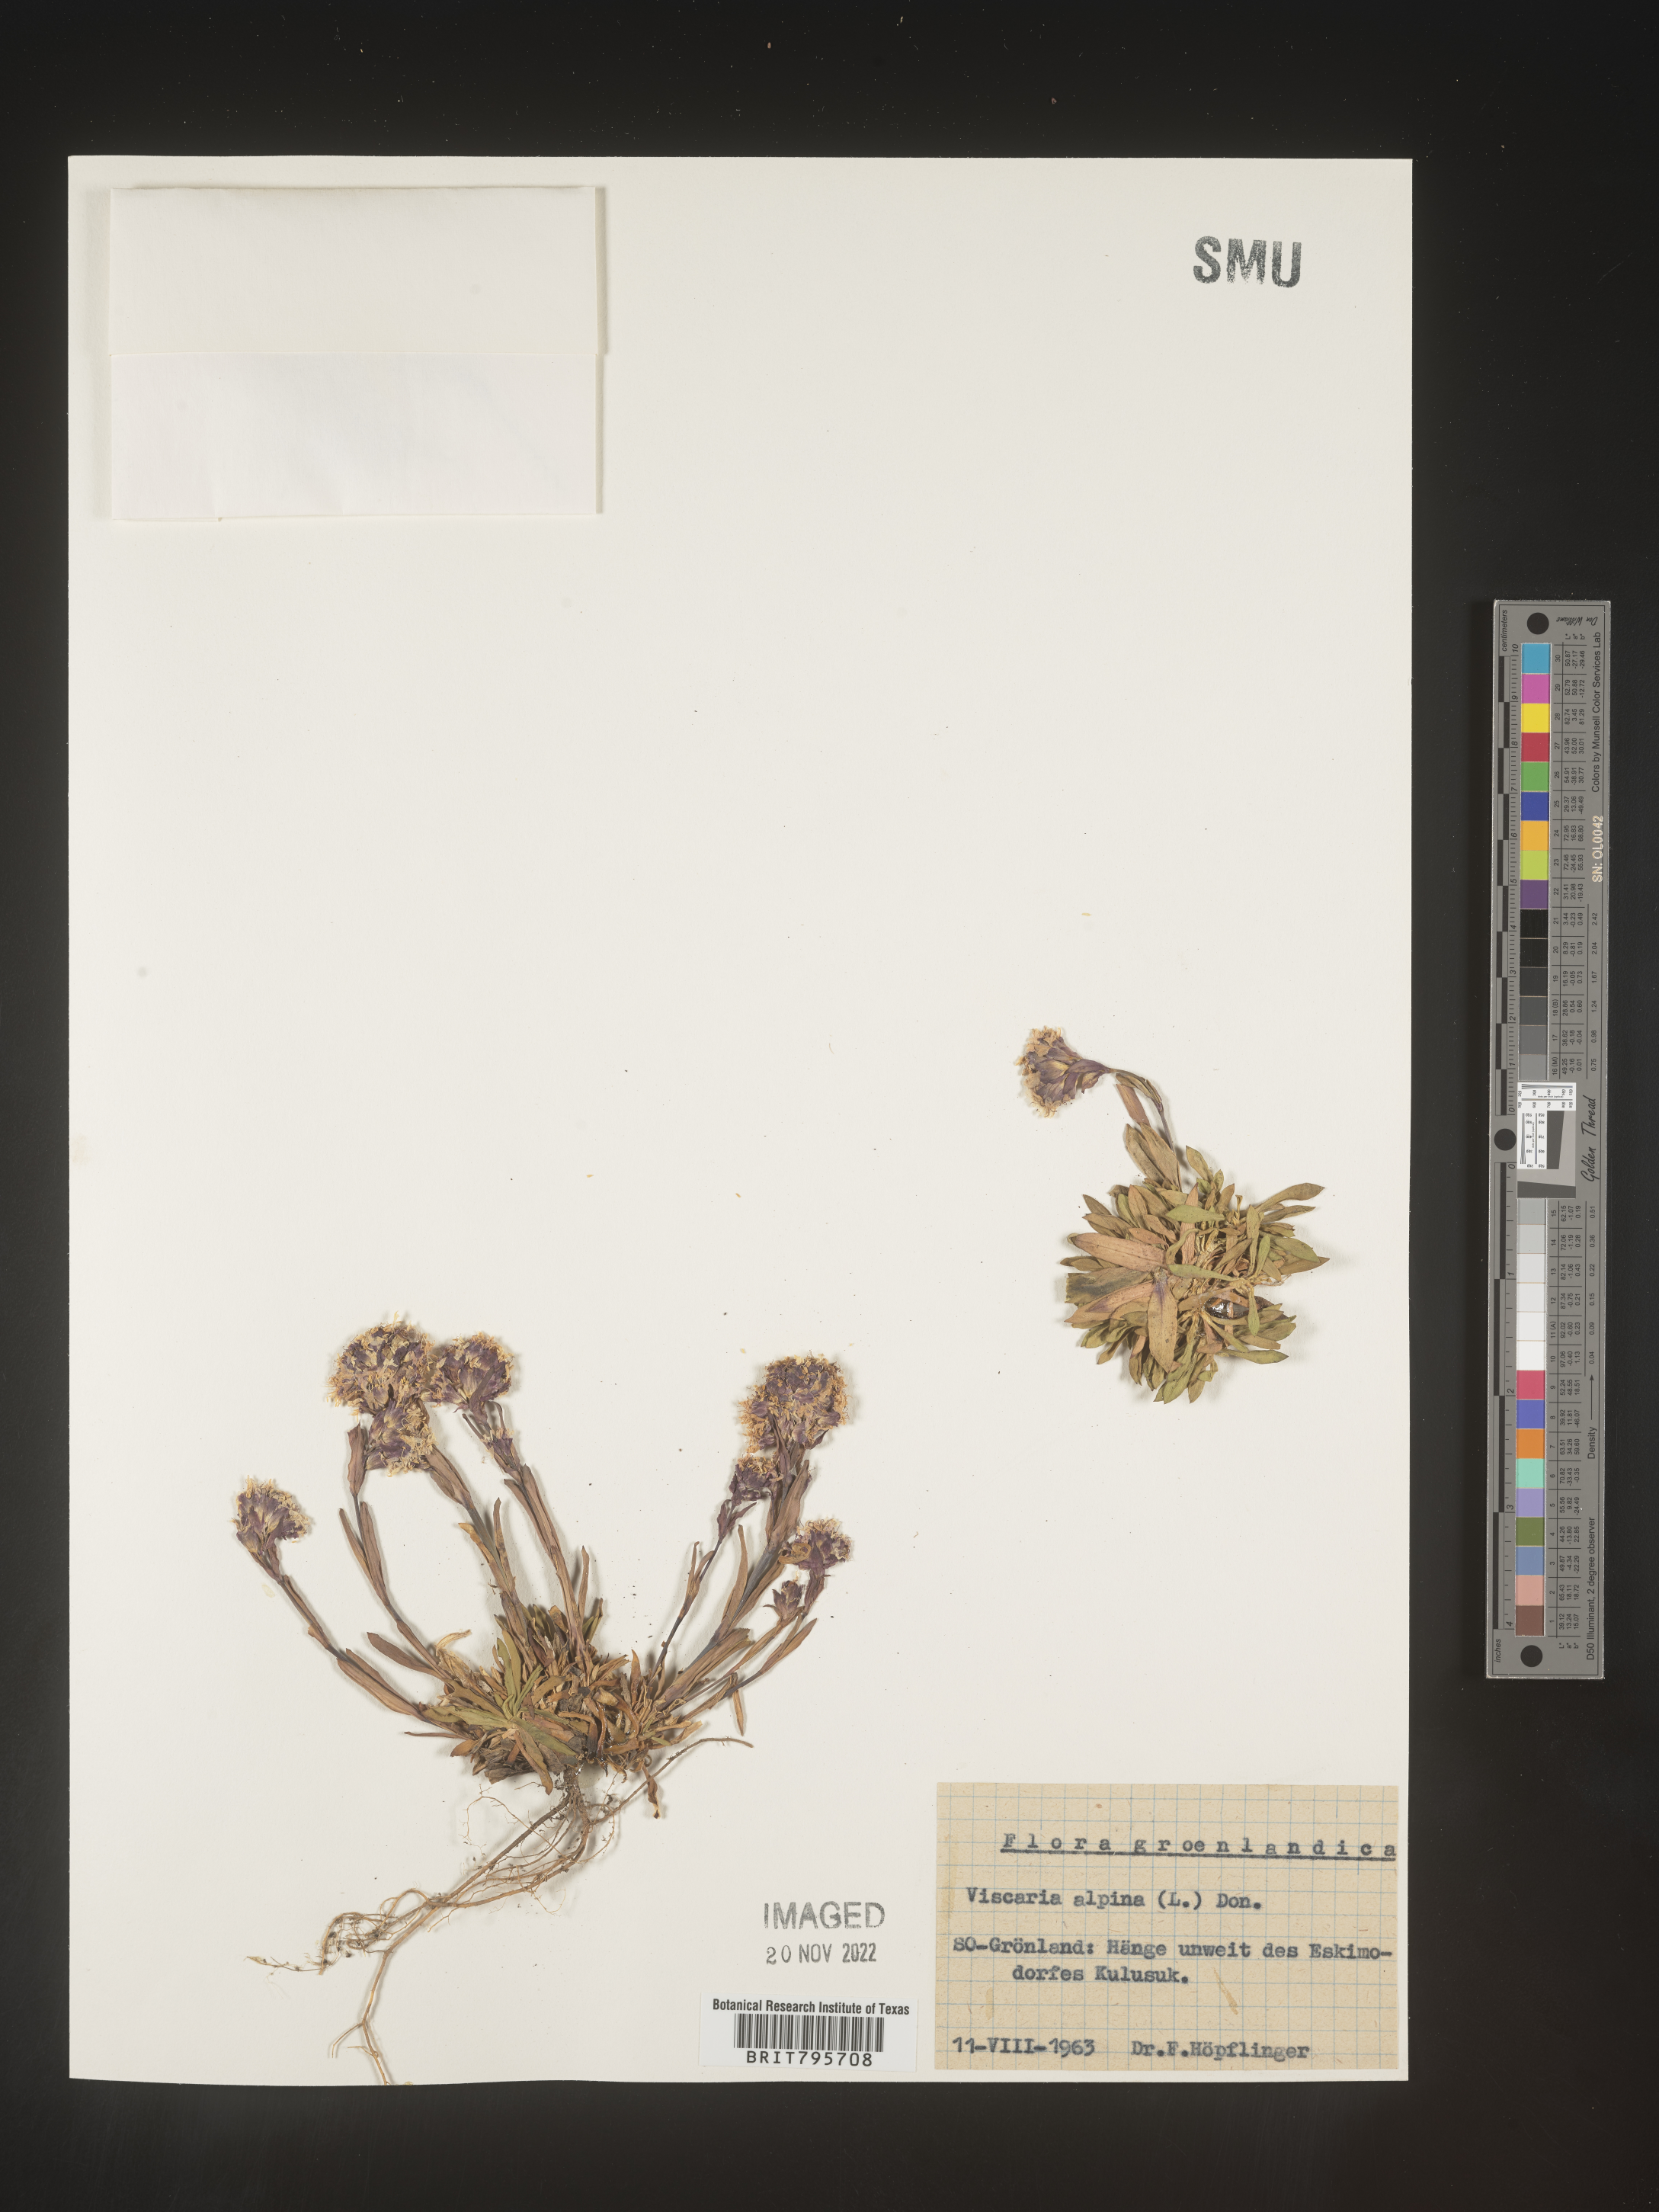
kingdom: Plantae
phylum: Tracheophyta
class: Magnoliopsida
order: Caryophyllales
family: Caryophyllaceae
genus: Viscaria
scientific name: Viscaria
